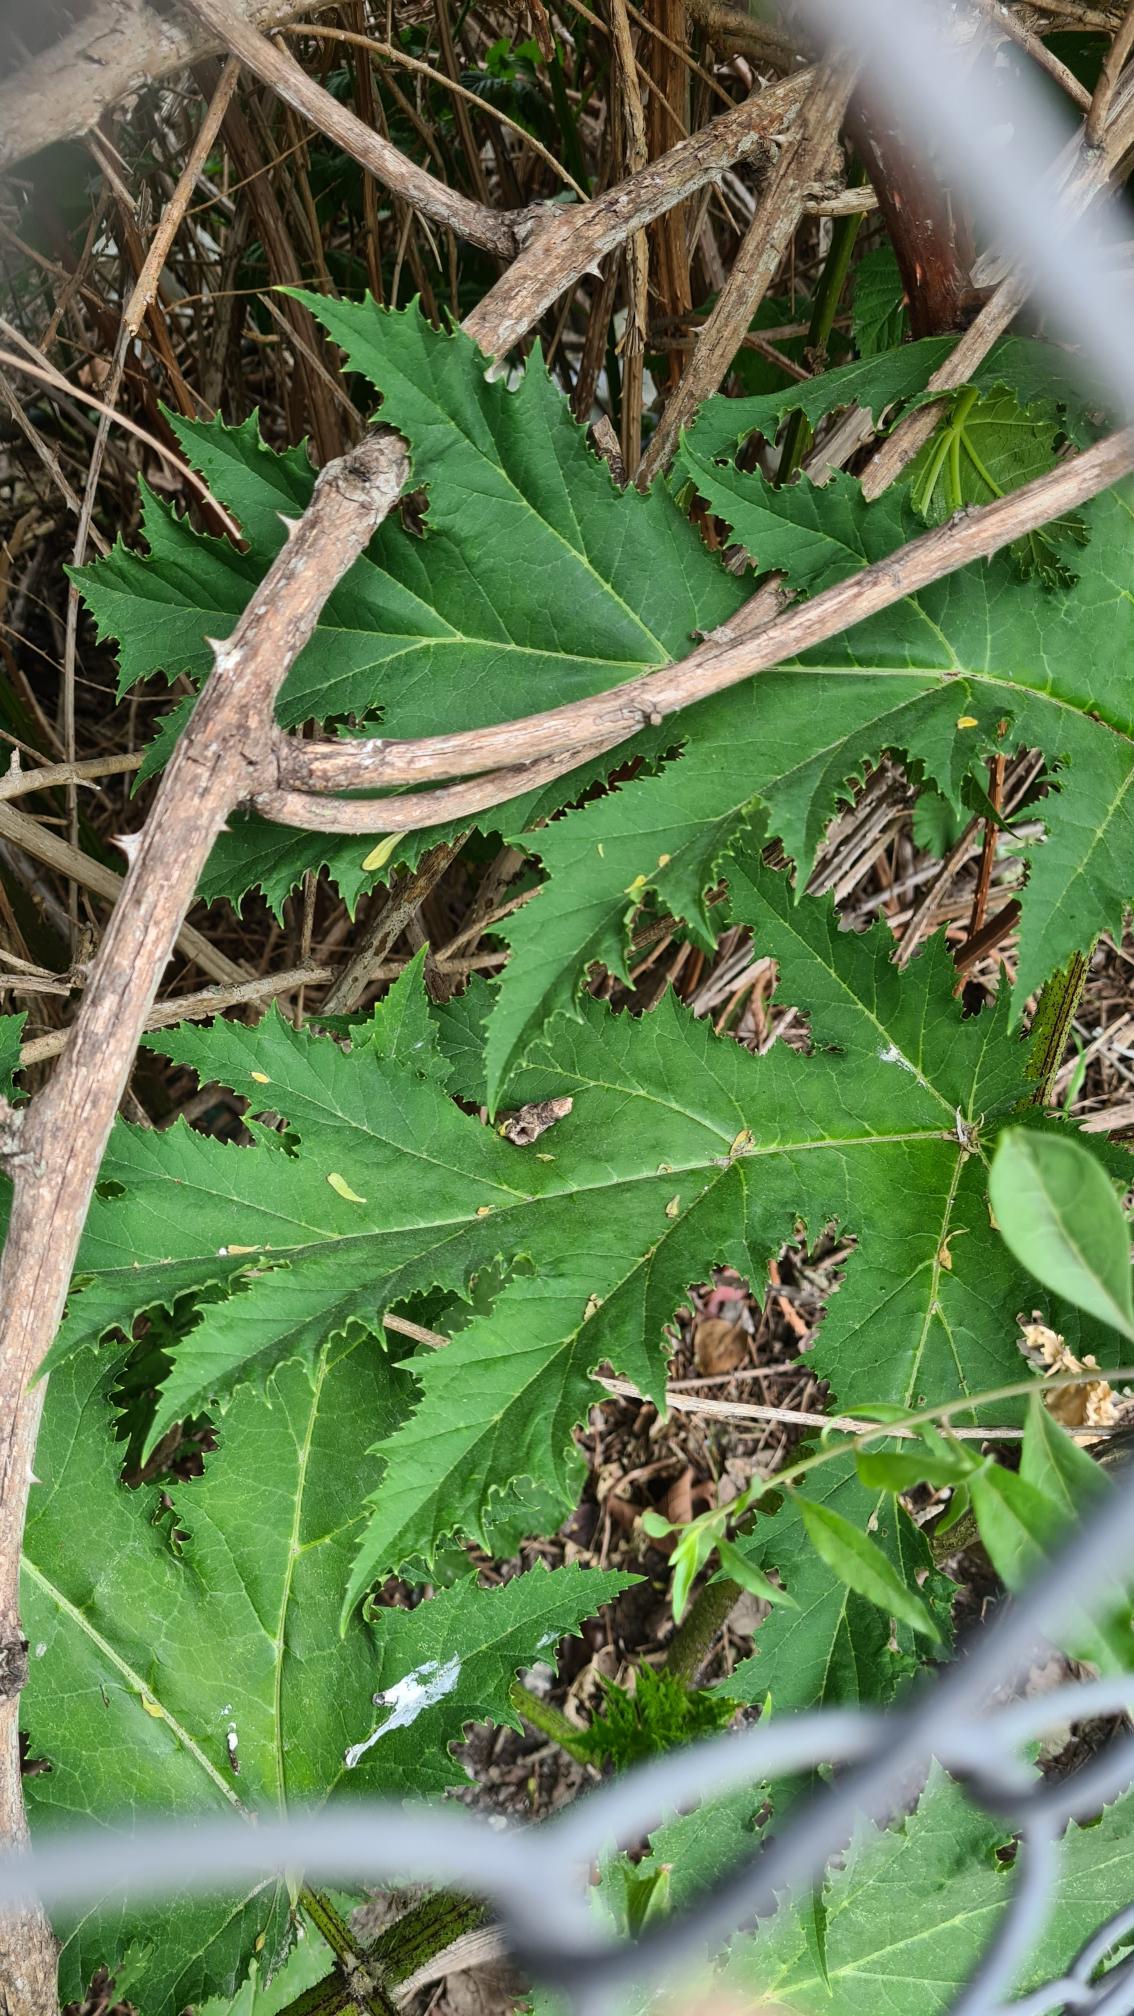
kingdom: Plantae
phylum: Tracheophyta
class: Magnoliopsida
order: Apiales
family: Apiaceae
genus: Heracleum
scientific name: Heracleum mantegazzianum
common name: Kæmpe-bjørneklo
